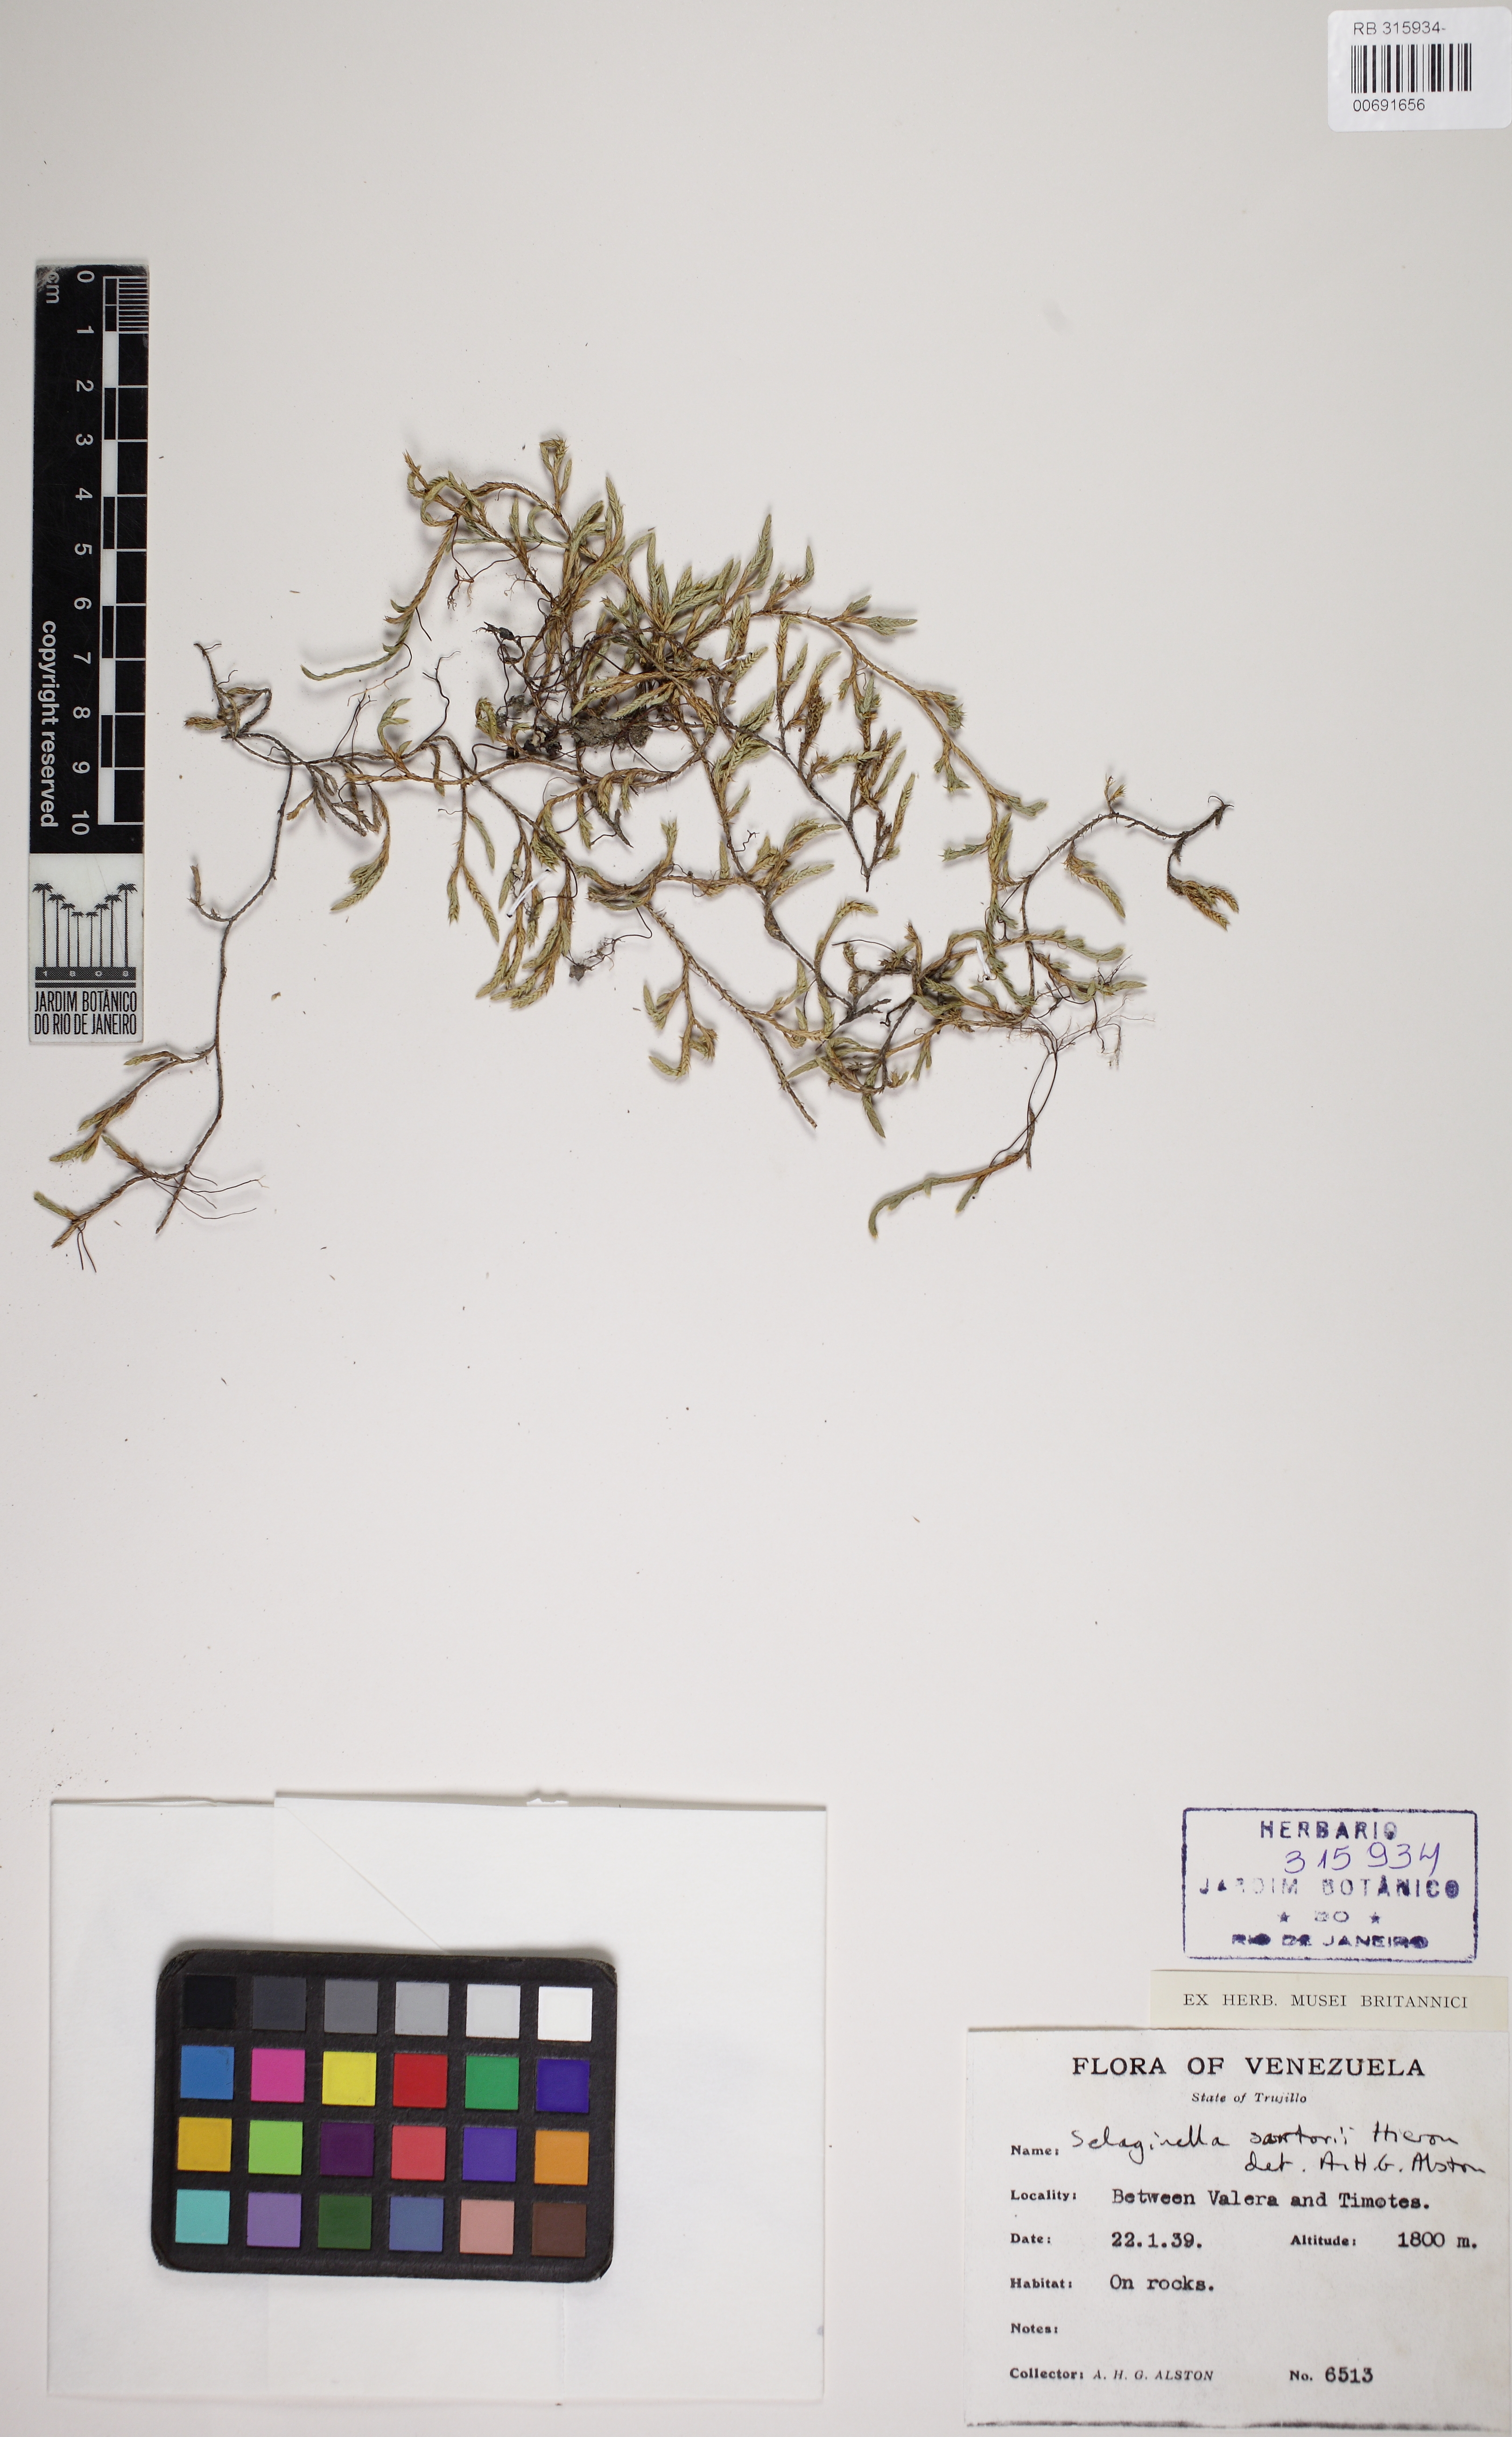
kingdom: Plantae
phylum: Tracheophyta
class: Lycopodiopsida
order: Selaginellales
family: Selaginellaceae
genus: Selaginella
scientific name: Selaginella sartorii
